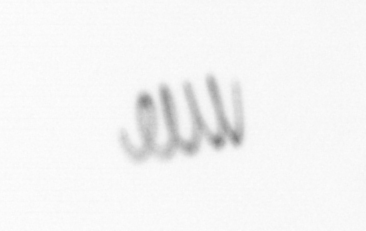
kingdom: Chromista
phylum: Ochrophyta
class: Bacillariophyceae
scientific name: Bacillariophyceae
